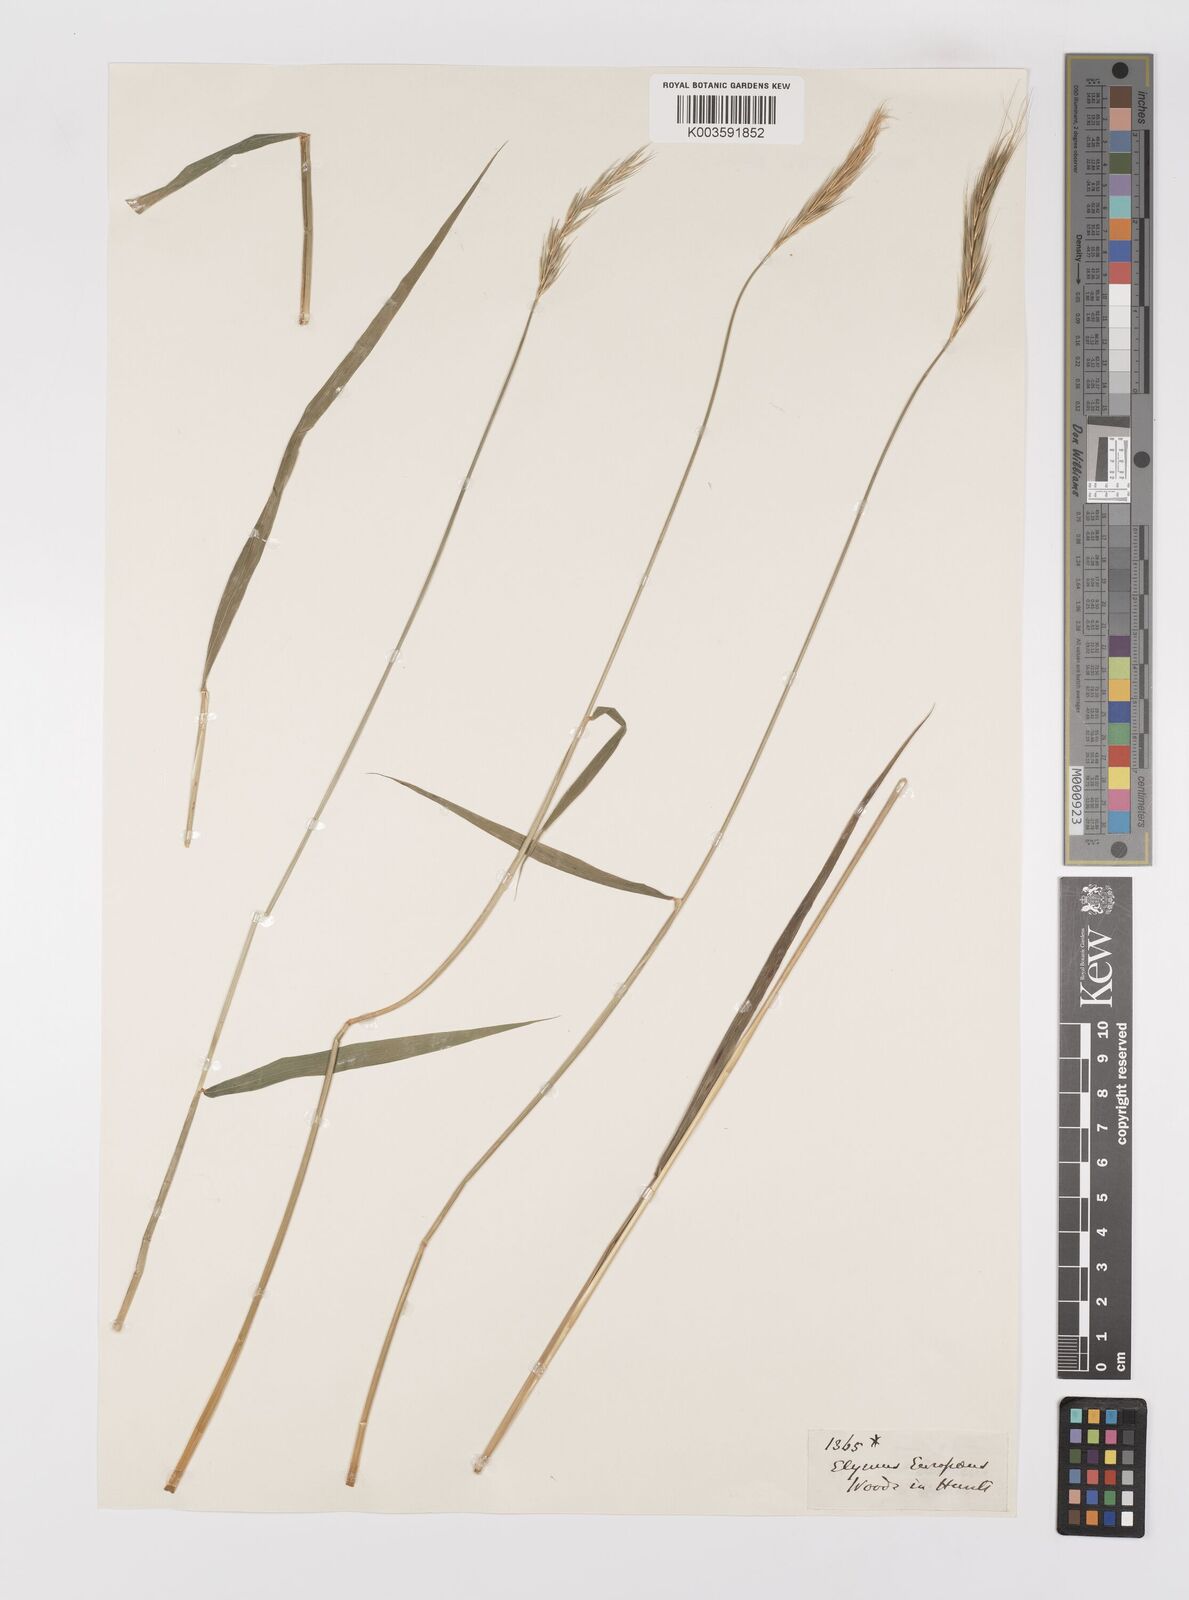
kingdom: Plantae
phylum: Tracheophyta
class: Liliopsida
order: Poales
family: Poaceae
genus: Hordelymus
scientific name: Hordelymus europaeus
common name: Wood-barley
